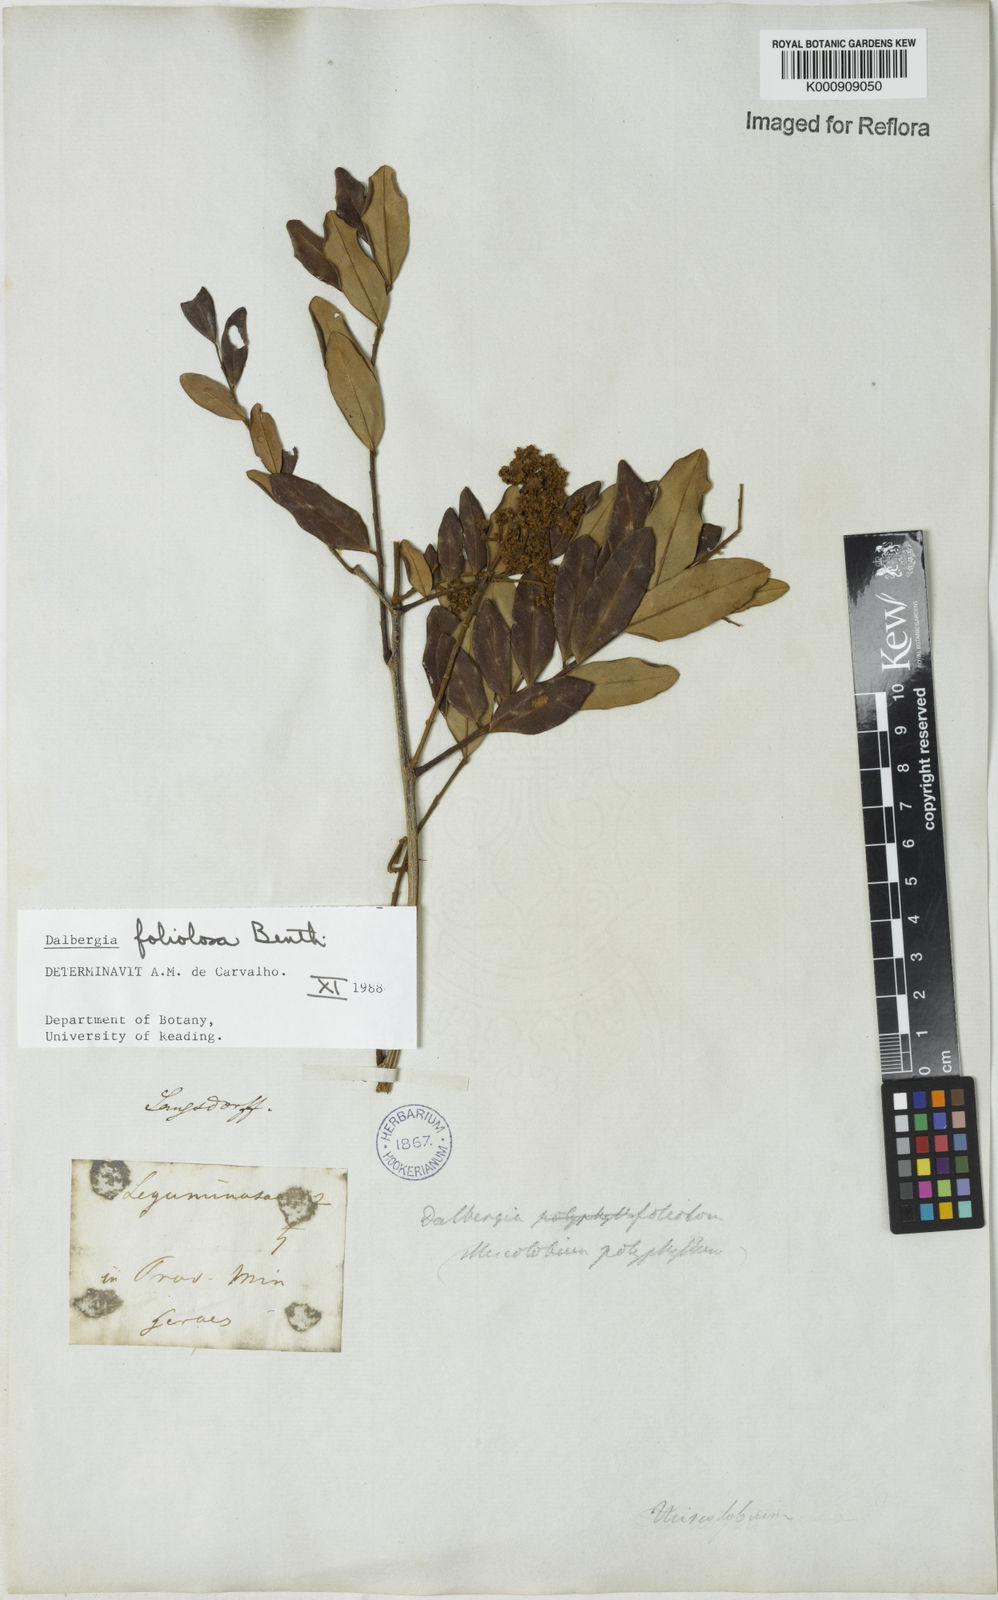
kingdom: Plantae
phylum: Tracheophyta
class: Magnoliopsida
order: Fabales
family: Fabaceae
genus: Dalbergia
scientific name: Dalbergia foliolosa
